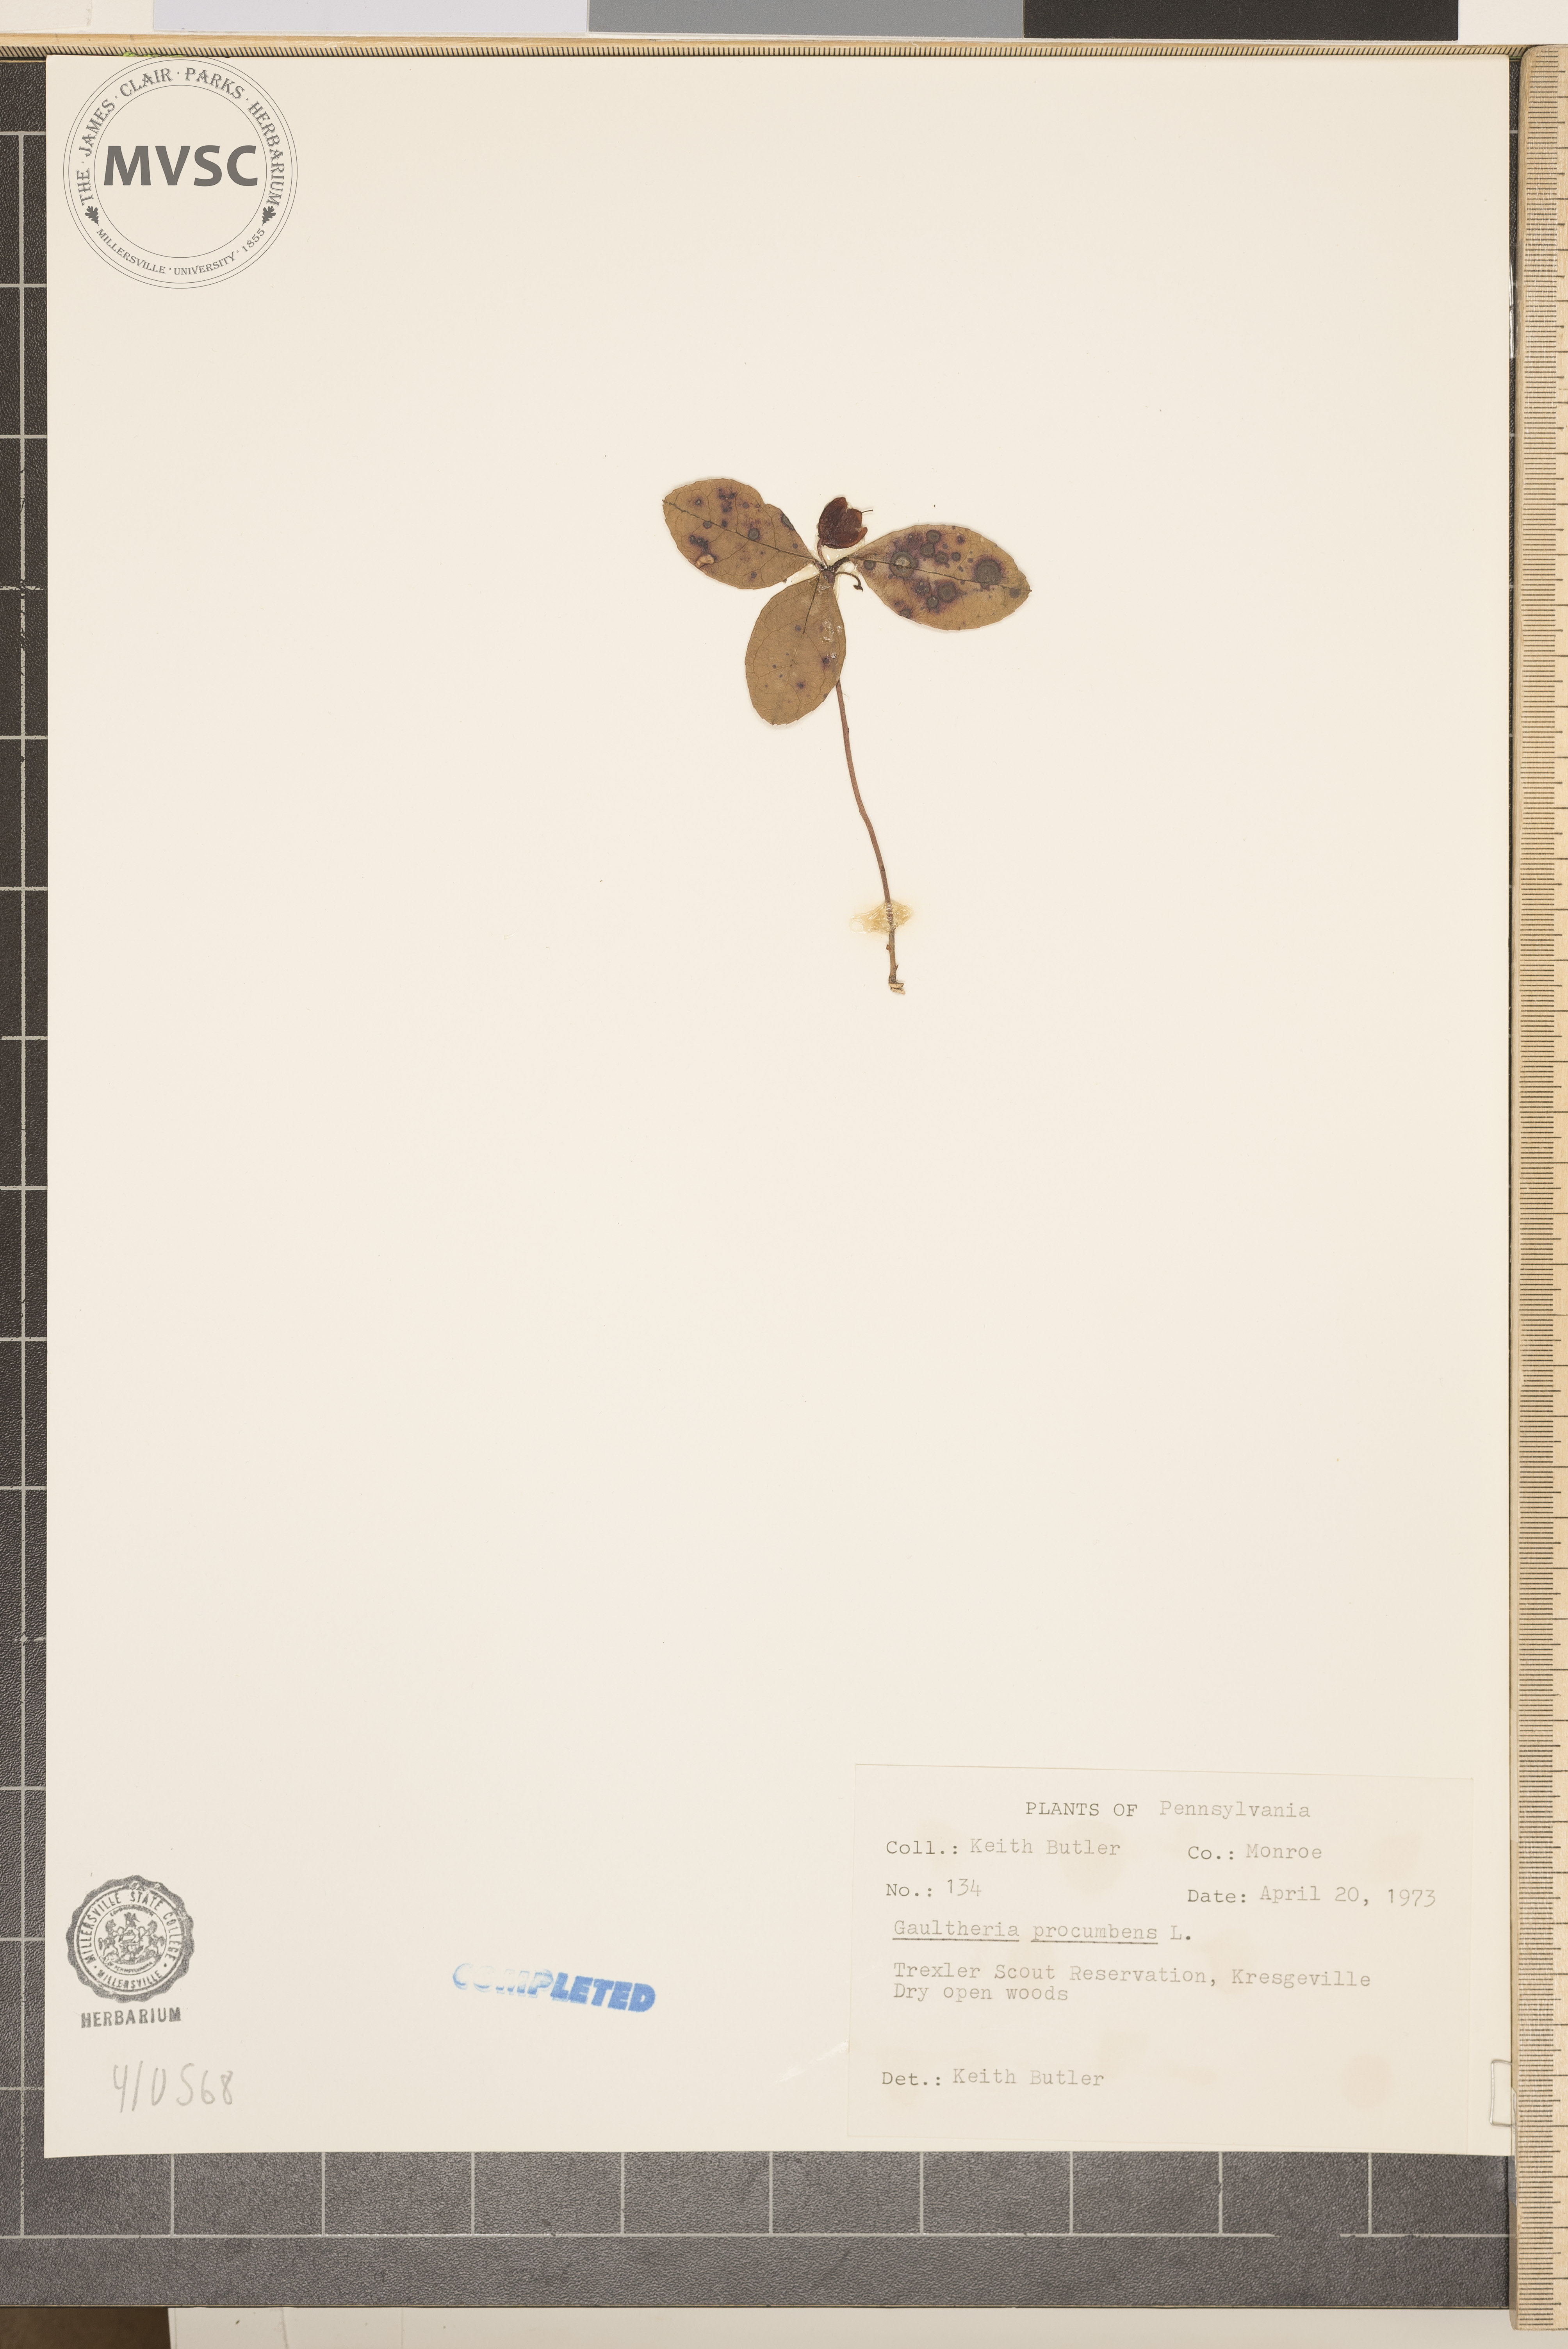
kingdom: Plantae
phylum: Tracheophyta
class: Magnoliopsida
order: Ericales
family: Ericaceae
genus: Gaultheria
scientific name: Gaultheria procumbens
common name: Checkerberry
